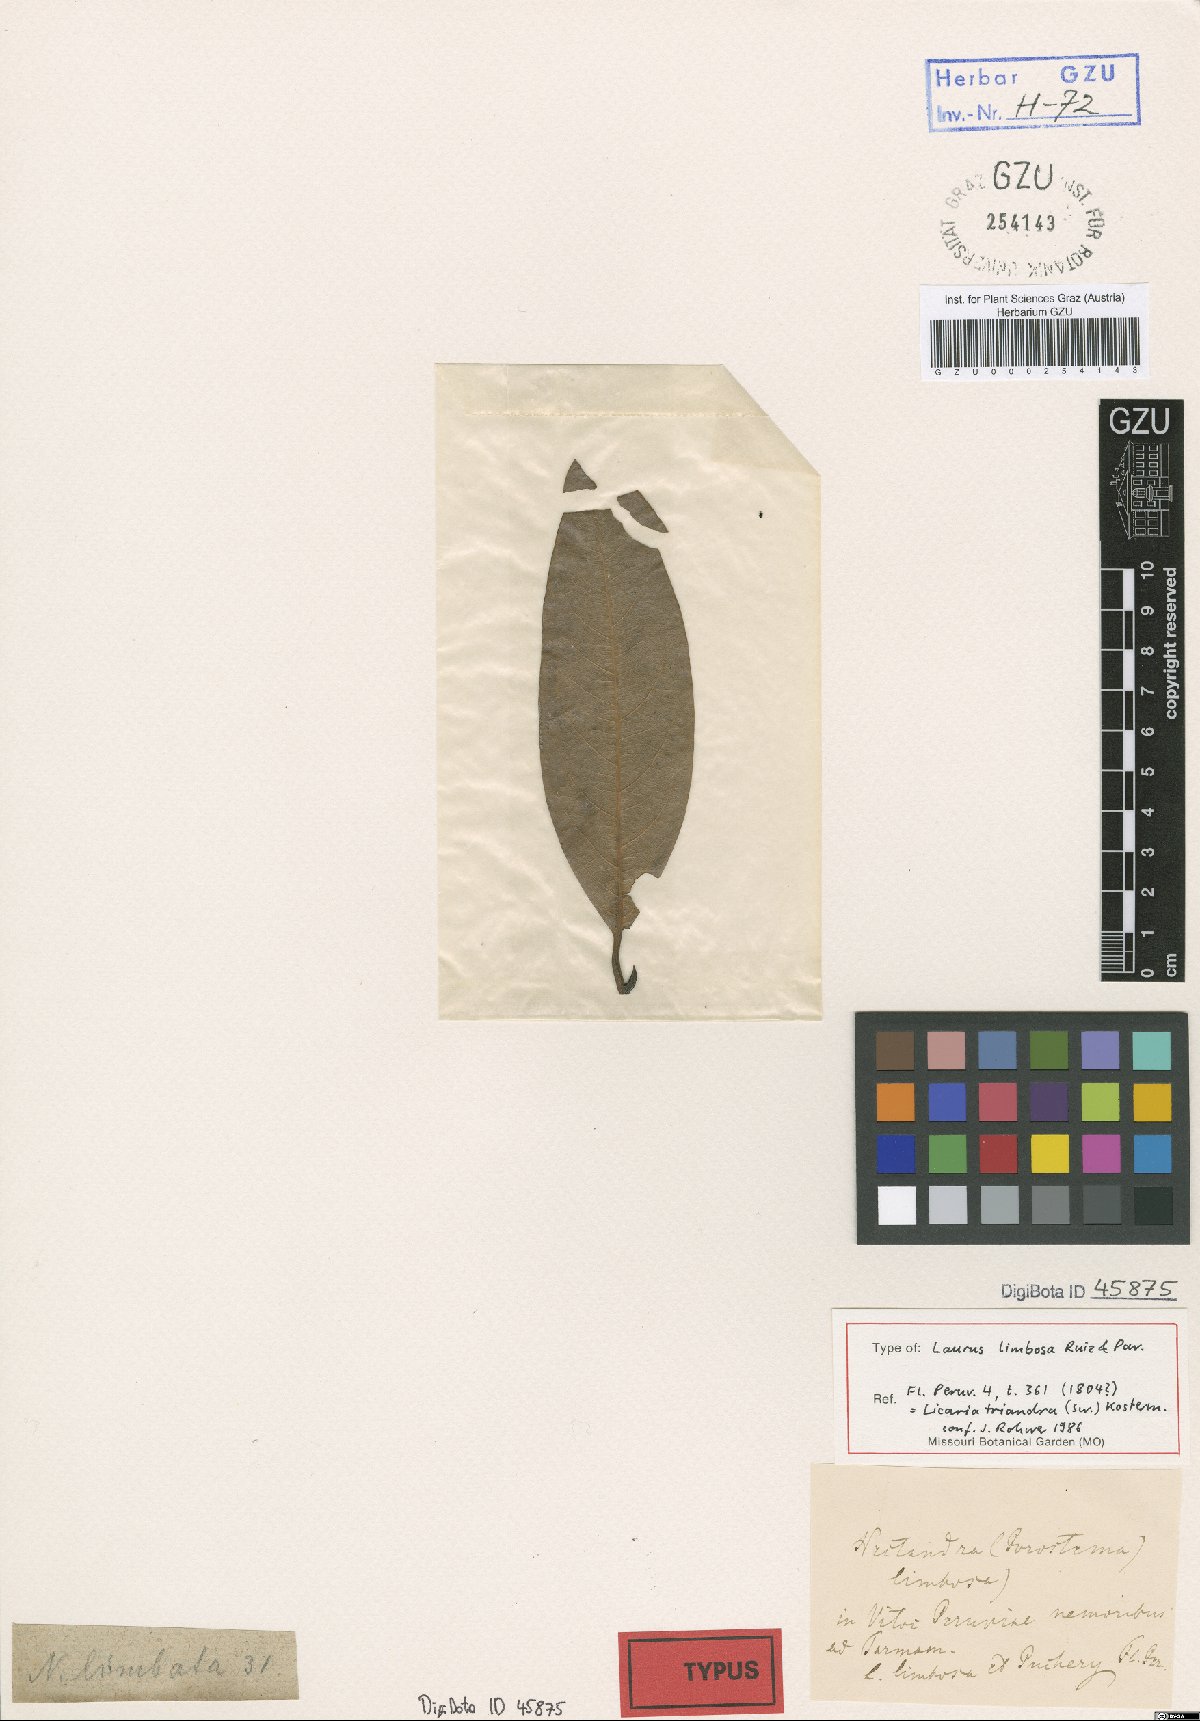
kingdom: Plantae
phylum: Tracheophyta
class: Magnoliopsida
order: Laurales
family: Lauraceae
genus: Licaria
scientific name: Licaria triandra
